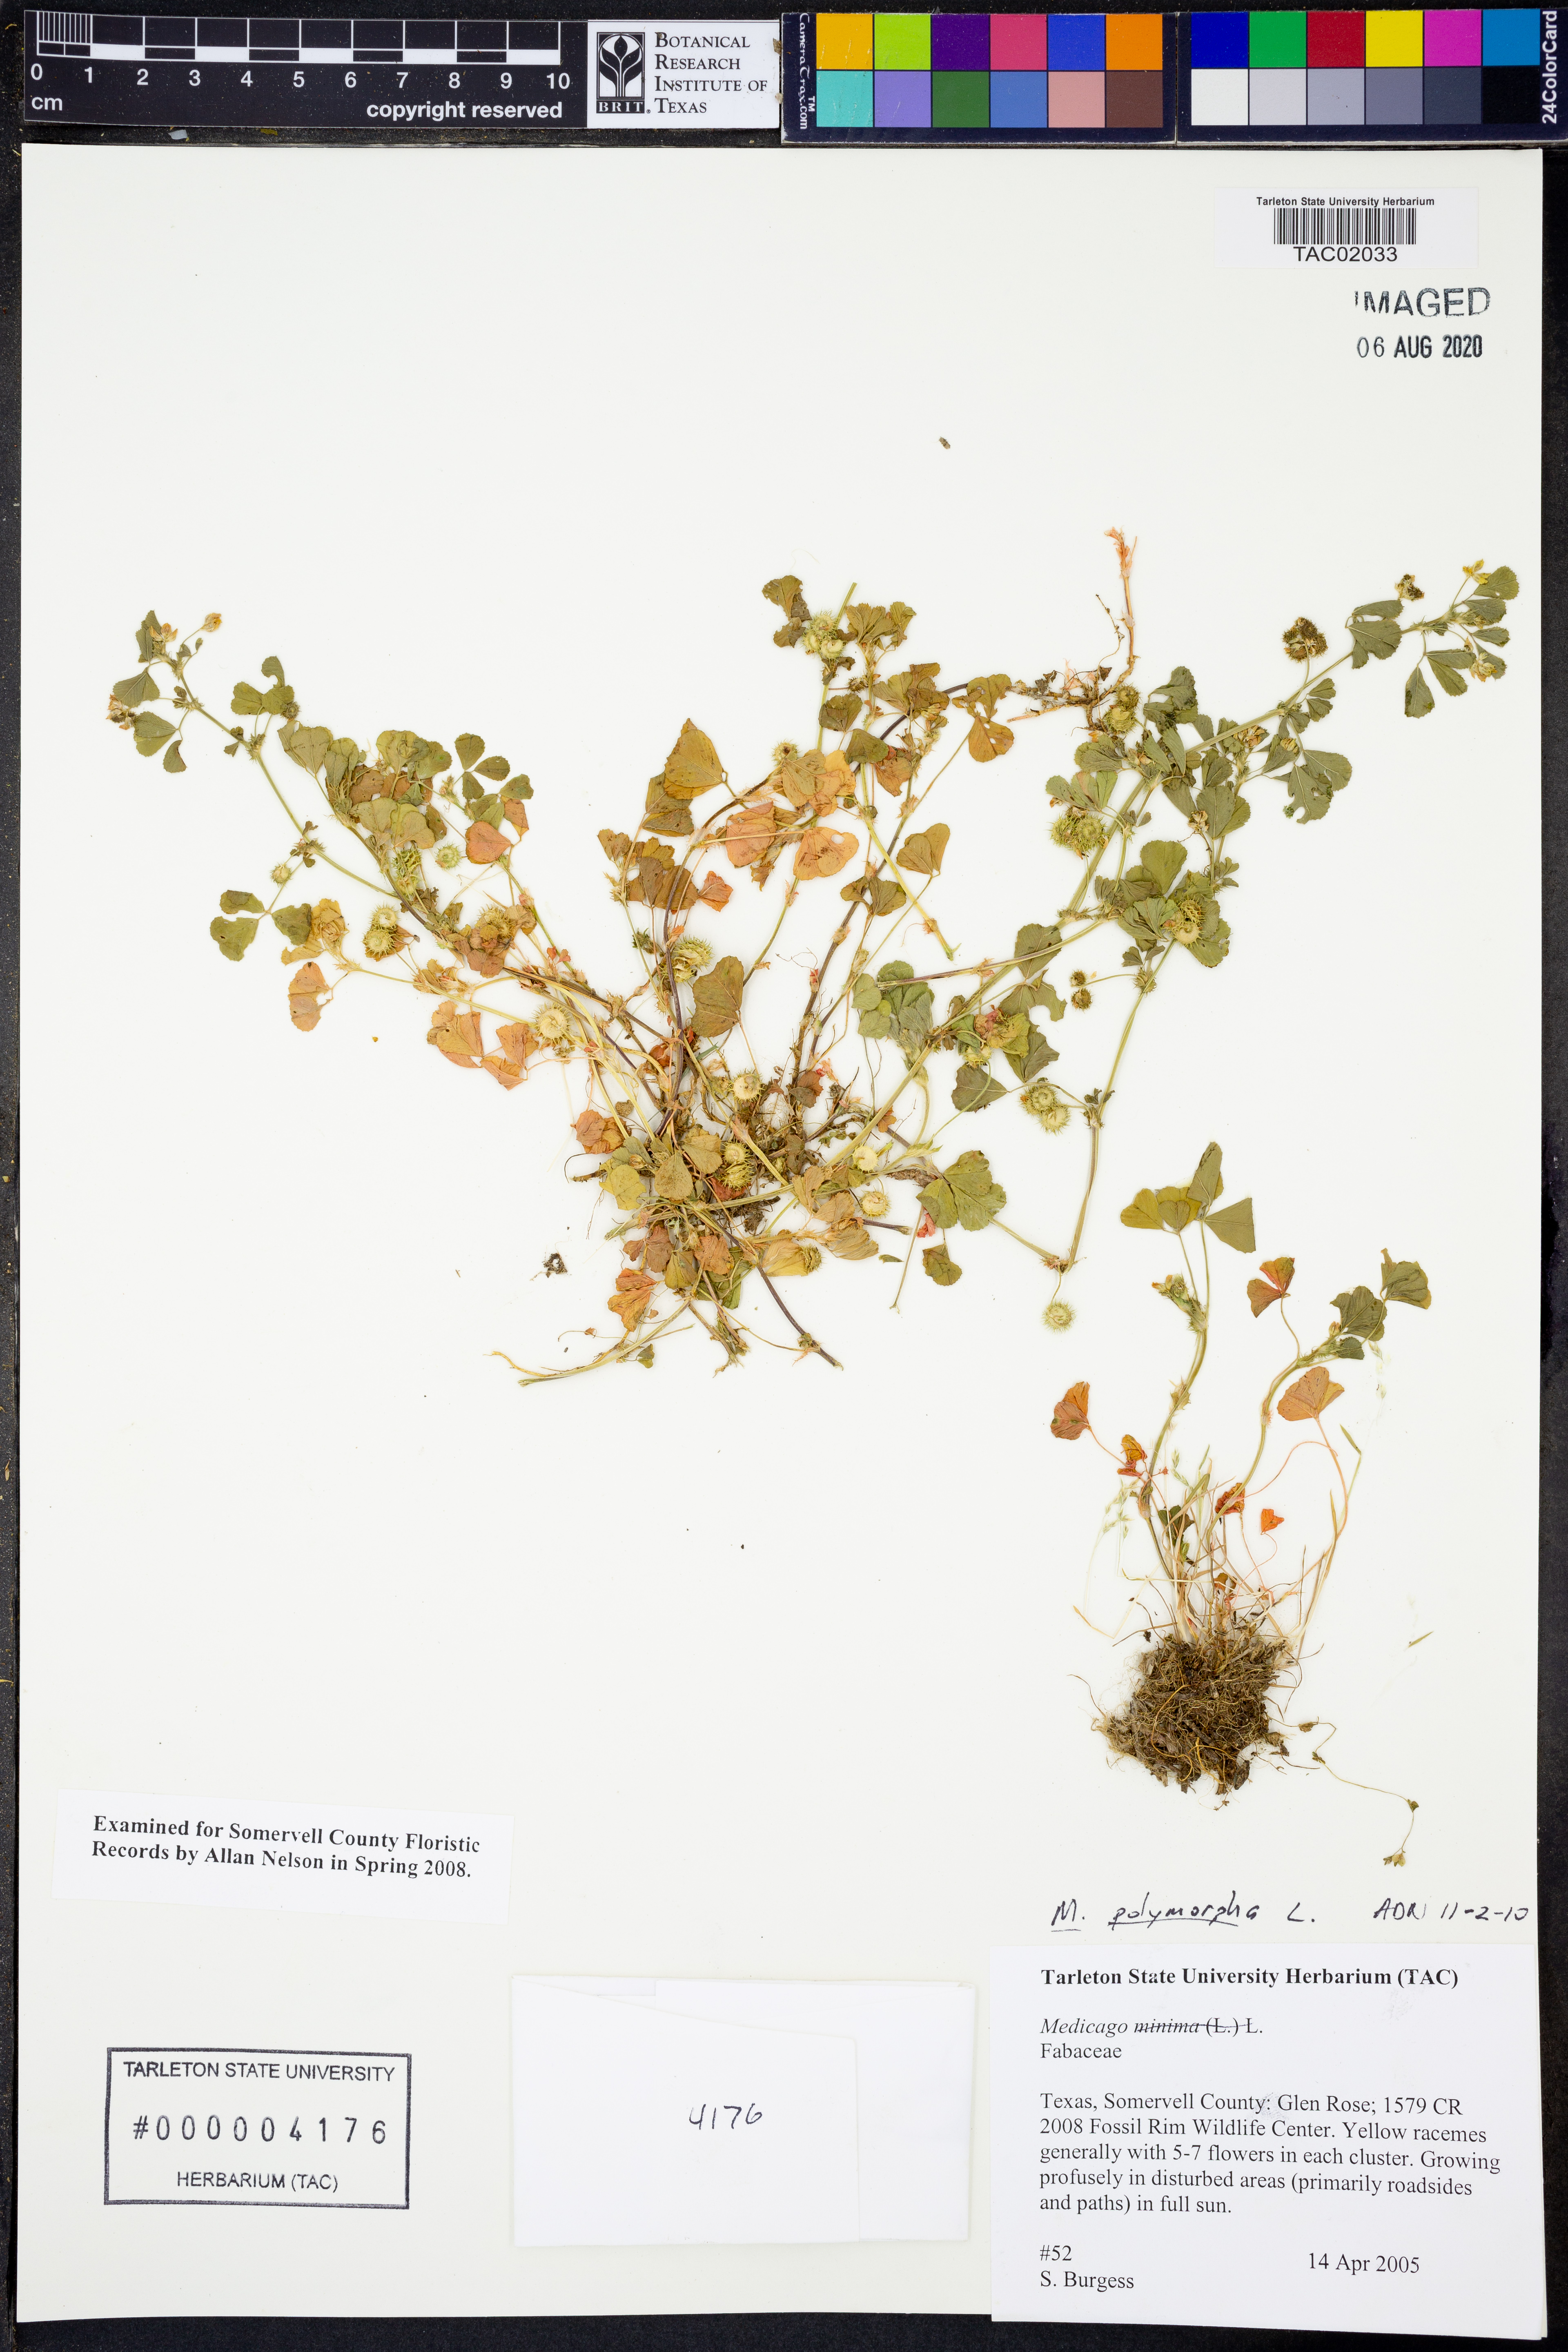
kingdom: Plantae
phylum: Tracheophyta
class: Magnoliopsida
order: Fabales
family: Fabaceae
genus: Medicago
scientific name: Medicago minima
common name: Little bur-clover
